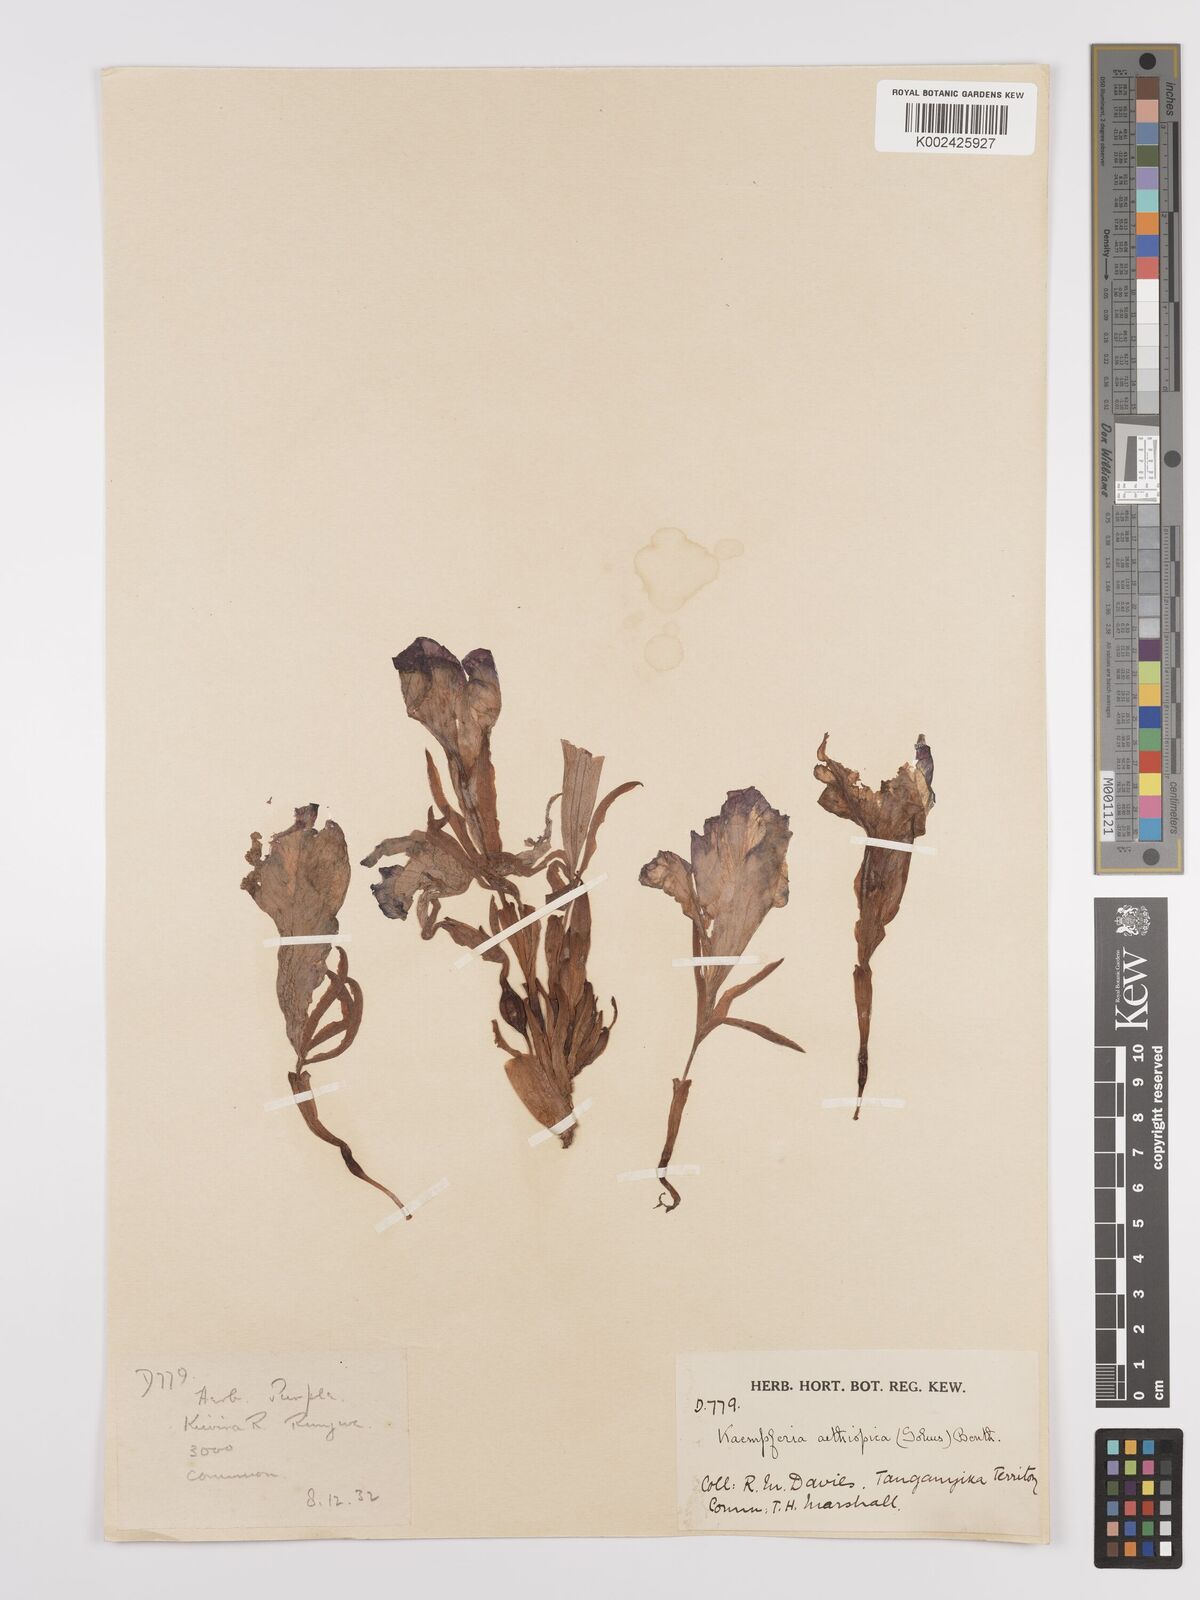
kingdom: Plantae
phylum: Tracheophyta
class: Liliopsida
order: Zingiberales
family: Zingiberaceae
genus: Siphonochilus
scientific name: Siphonochilus aethiopicus
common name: African-ginger
